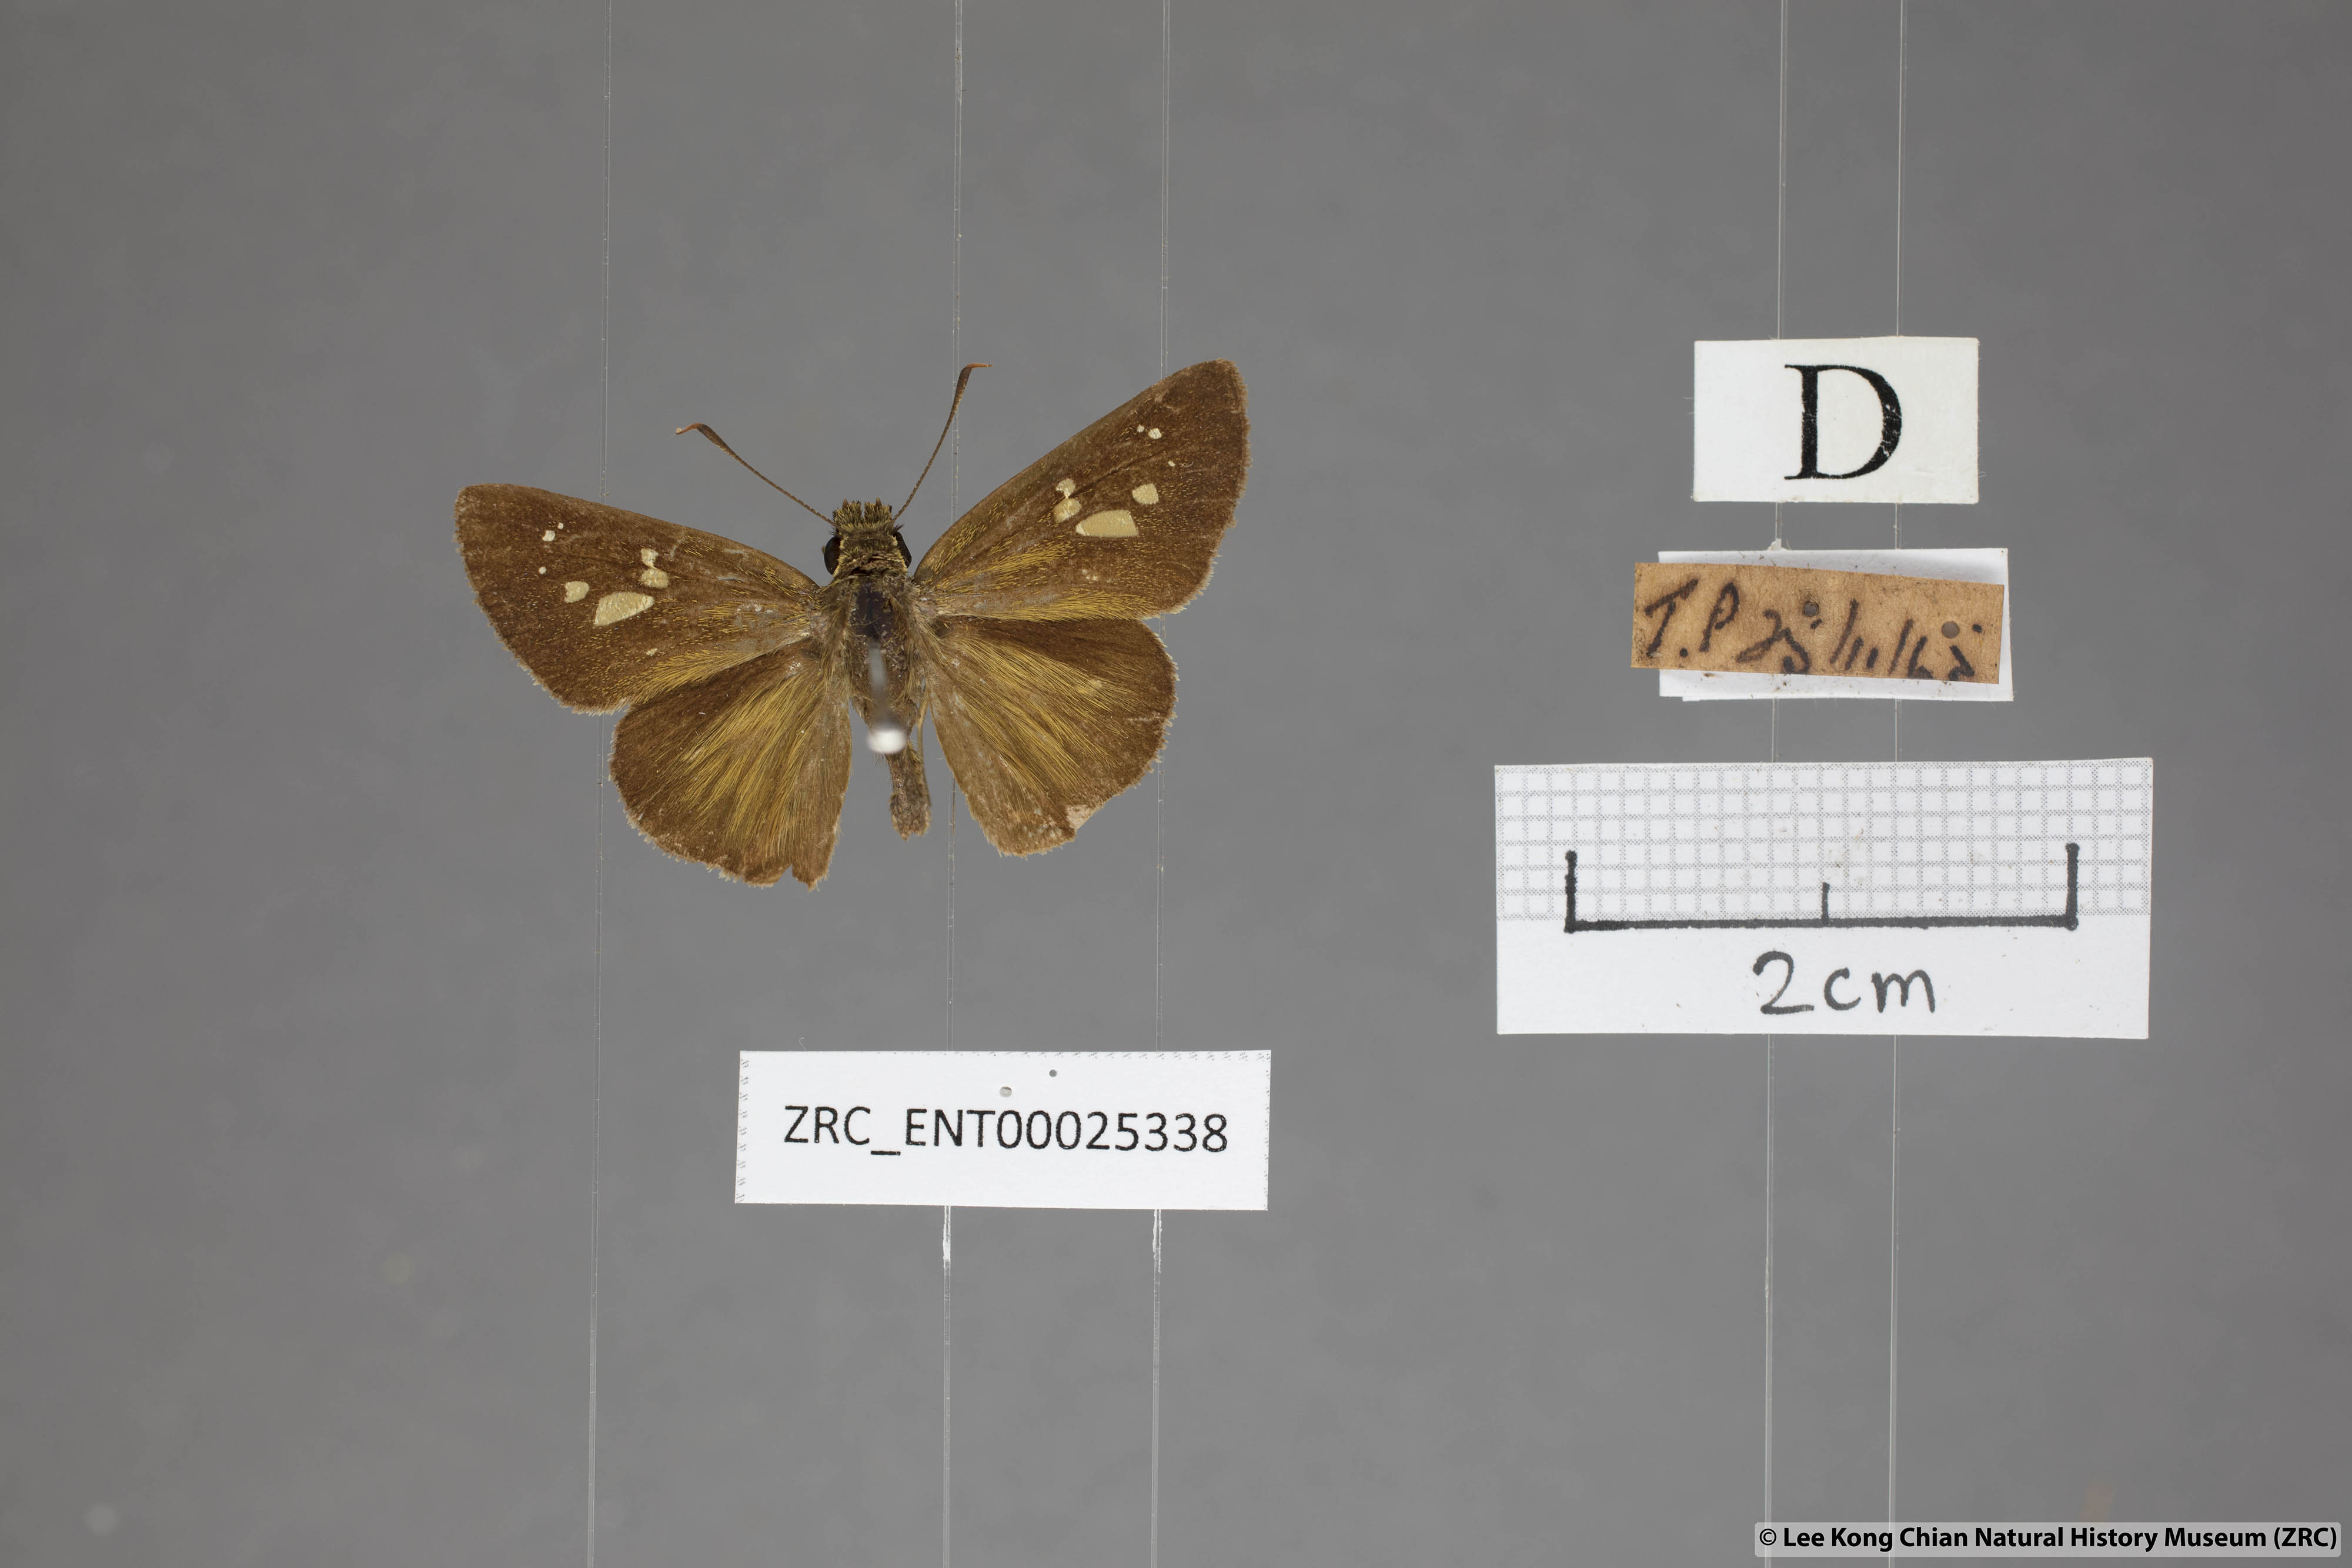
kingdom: Animalia
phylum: Arthropoda
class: Insecta
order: Lepidoptera
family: Hesperiidae
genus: Polytremis
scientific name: Polytremis lubricans
